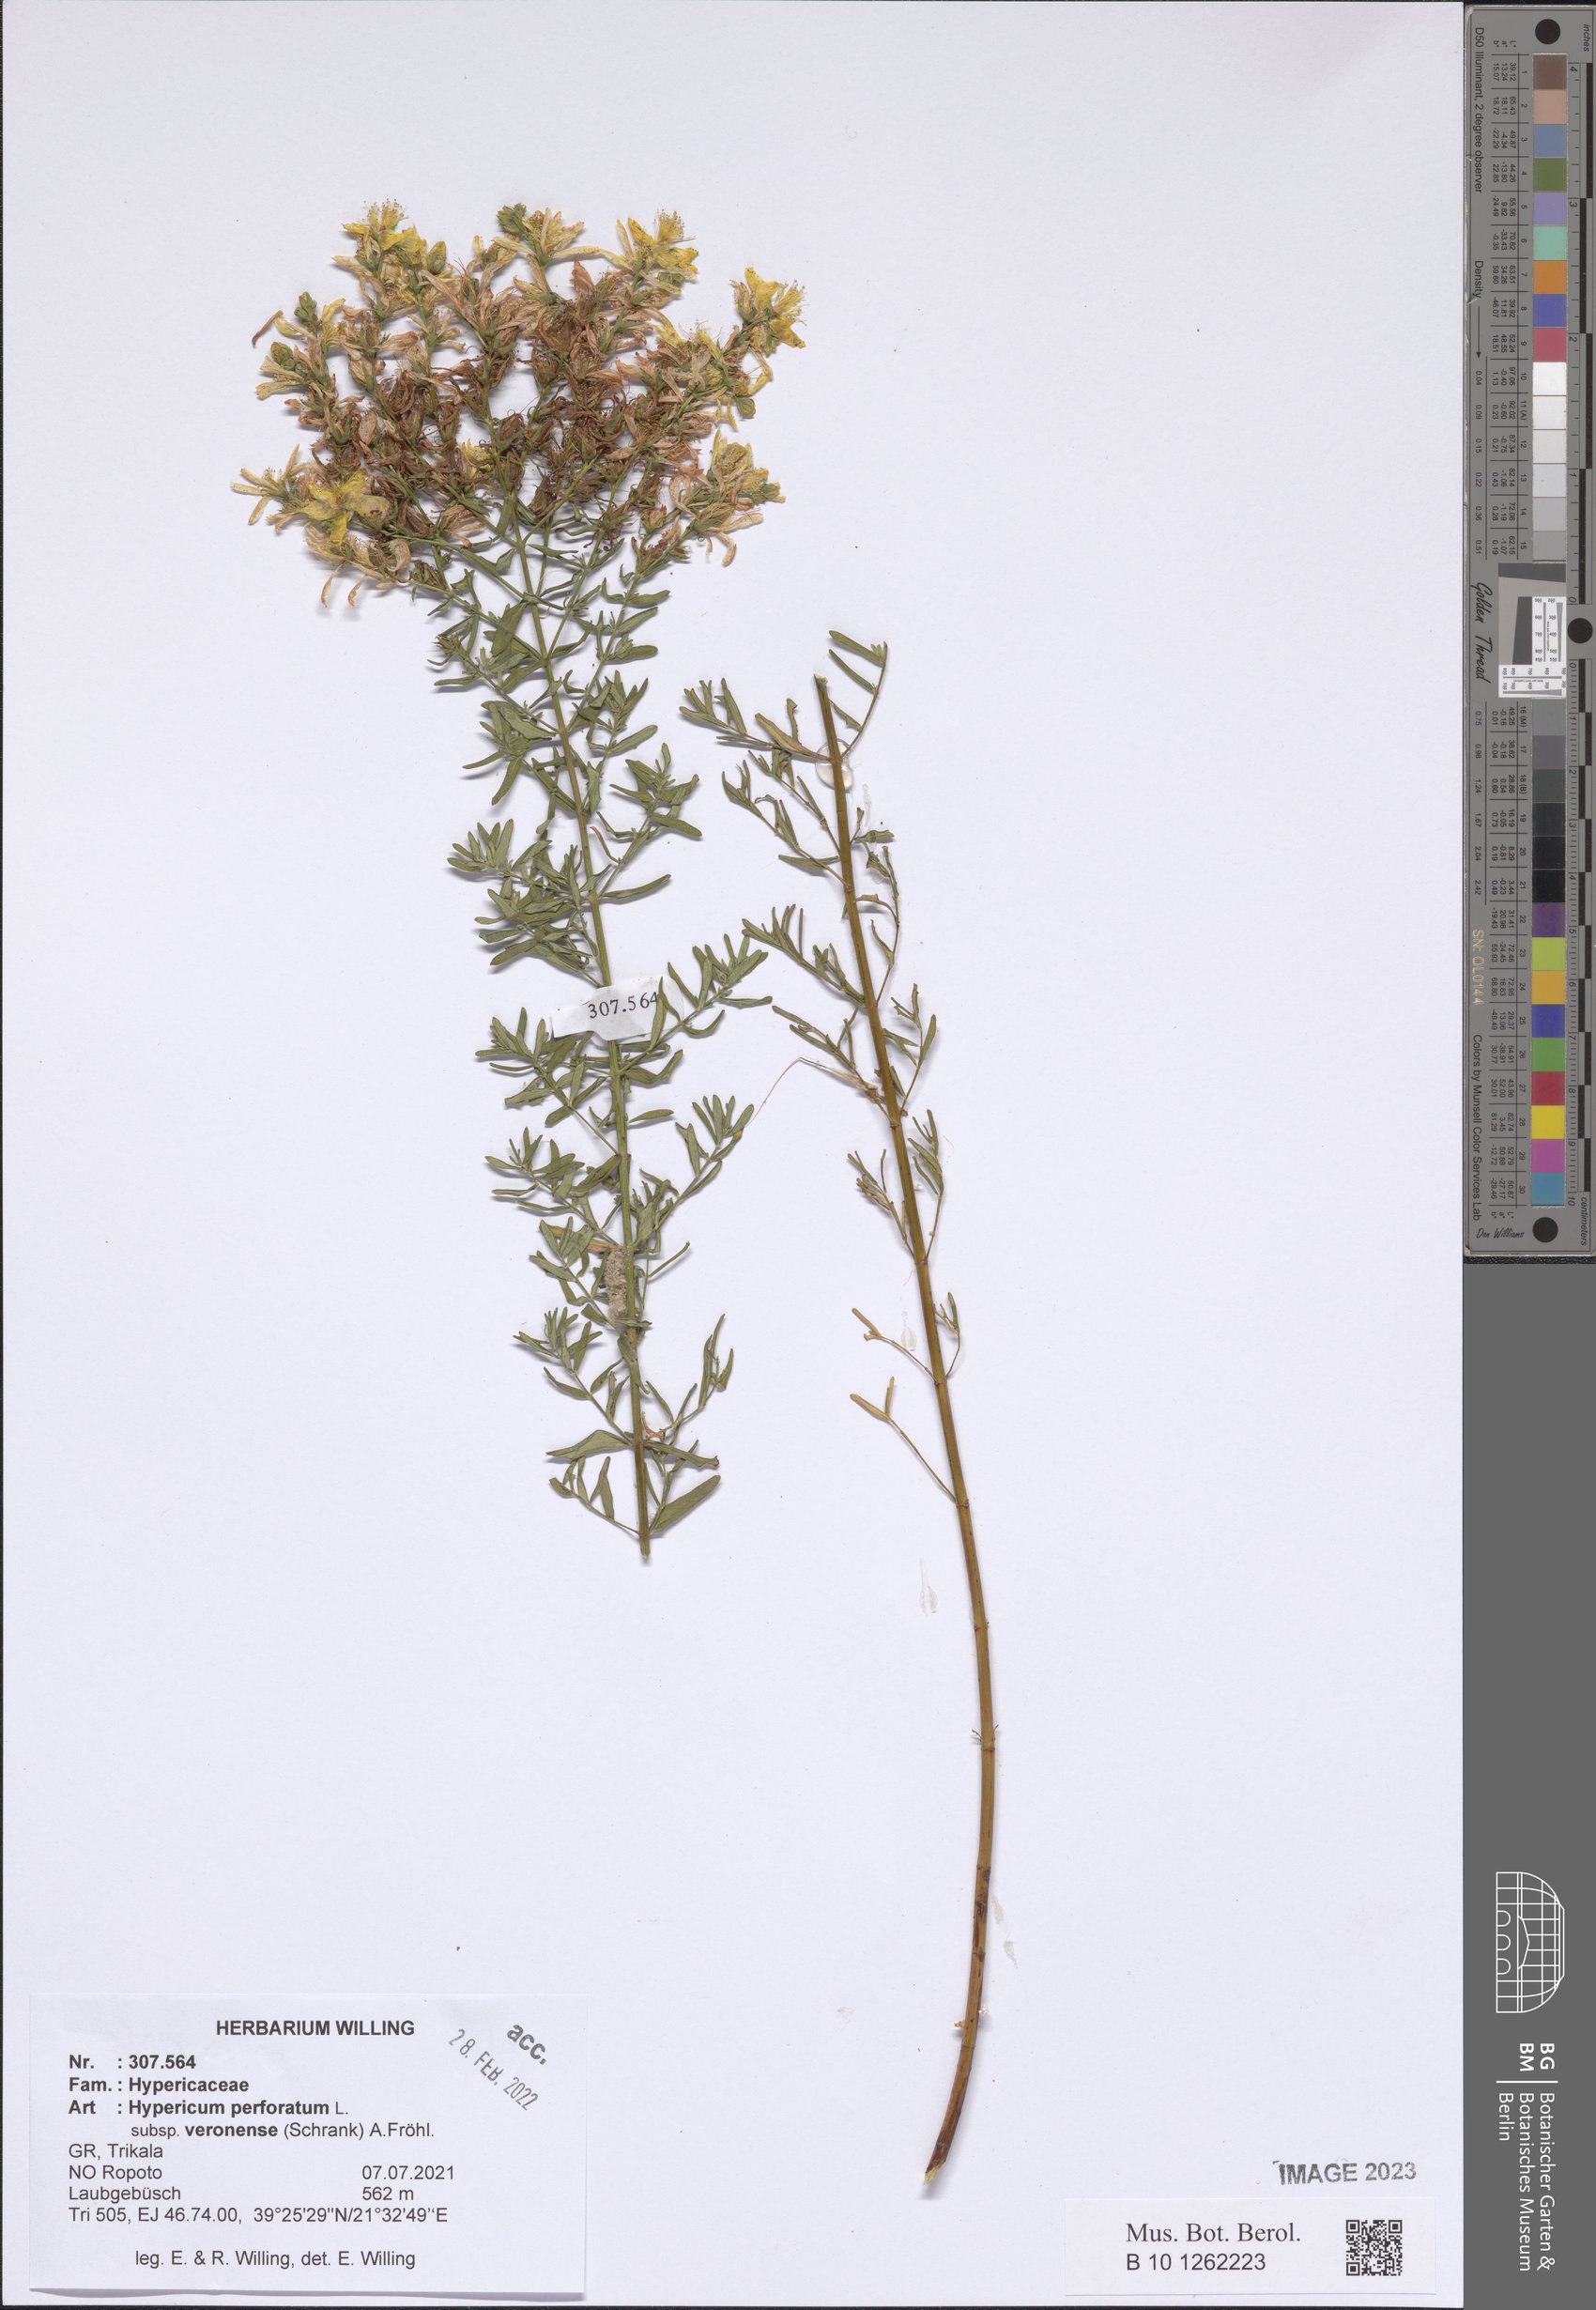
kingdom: Plantae
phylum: Tracheophyta
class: Magnoliopsida
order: Malpighiales
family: Hypericaceae
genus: Hypericum
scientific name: Hypericum veronense
